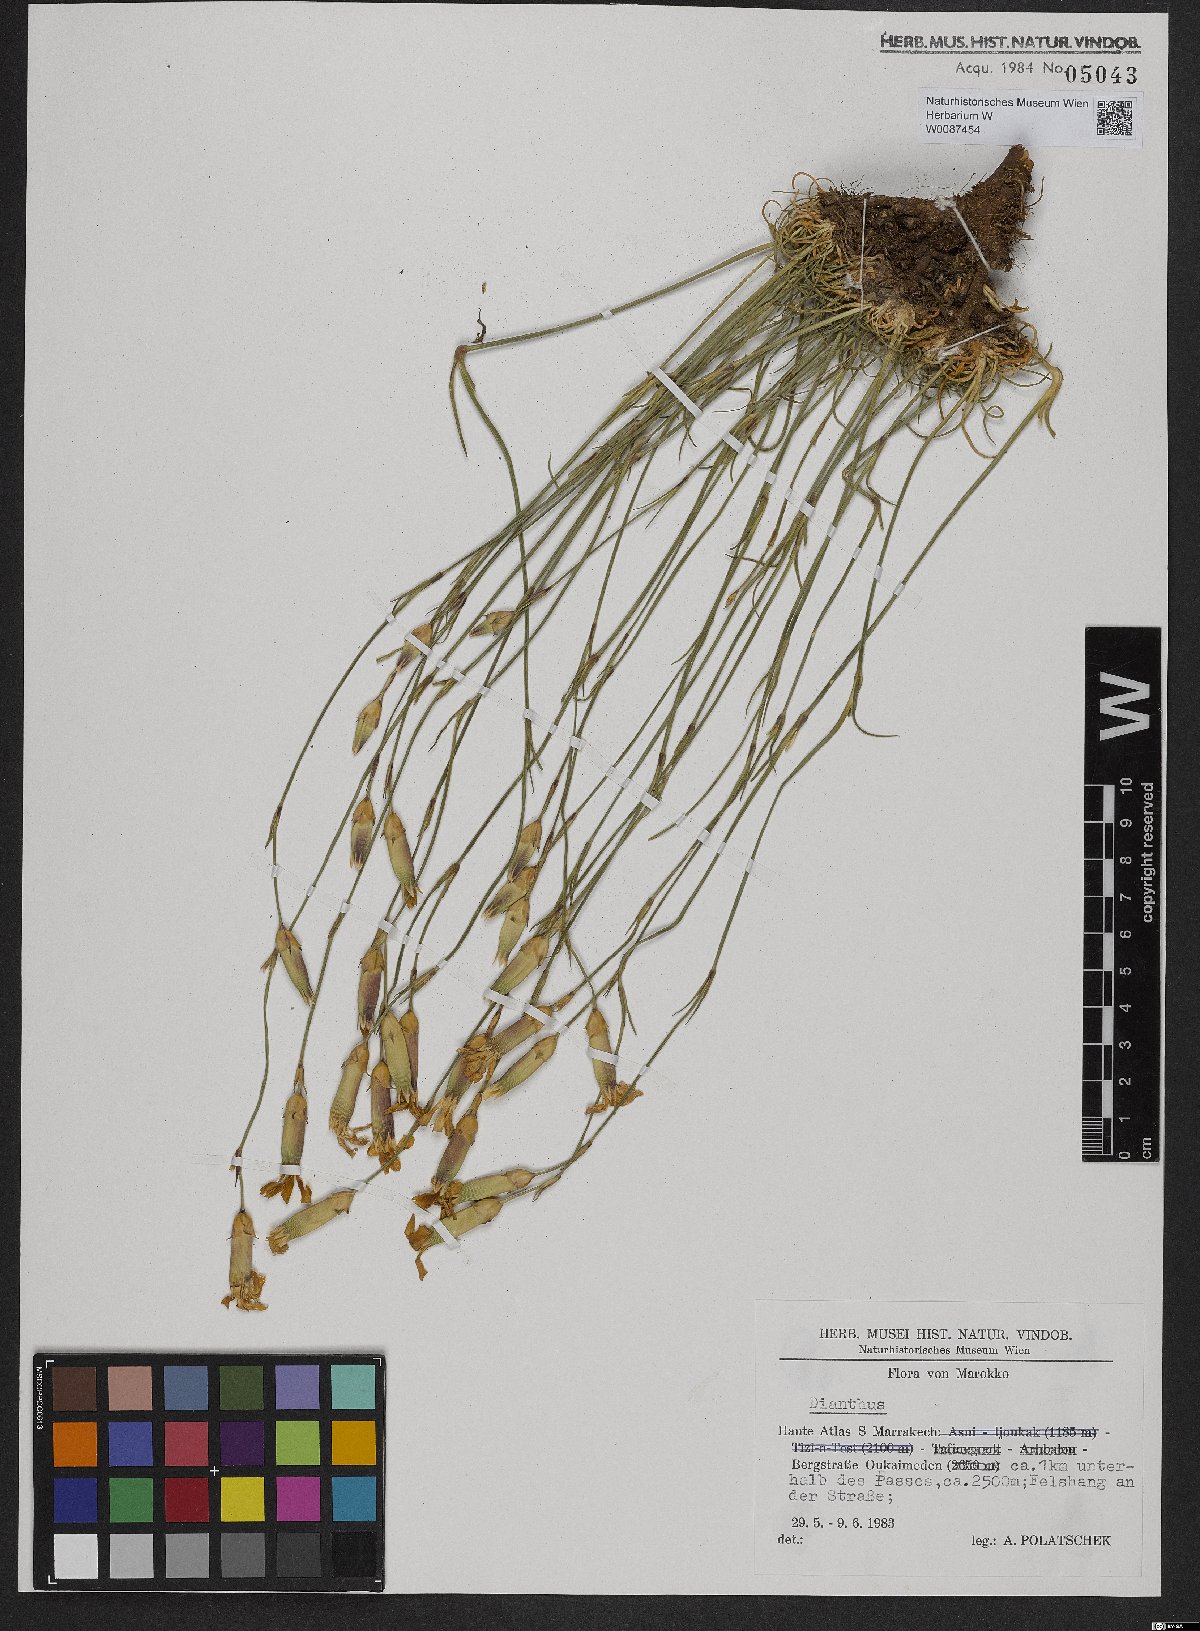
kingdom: Plantae
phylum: Tracheophyta
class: Magnoliopsida
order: Caryophyllales
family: Caryophyllaceae
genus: Dianthus
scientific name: Dianthus
